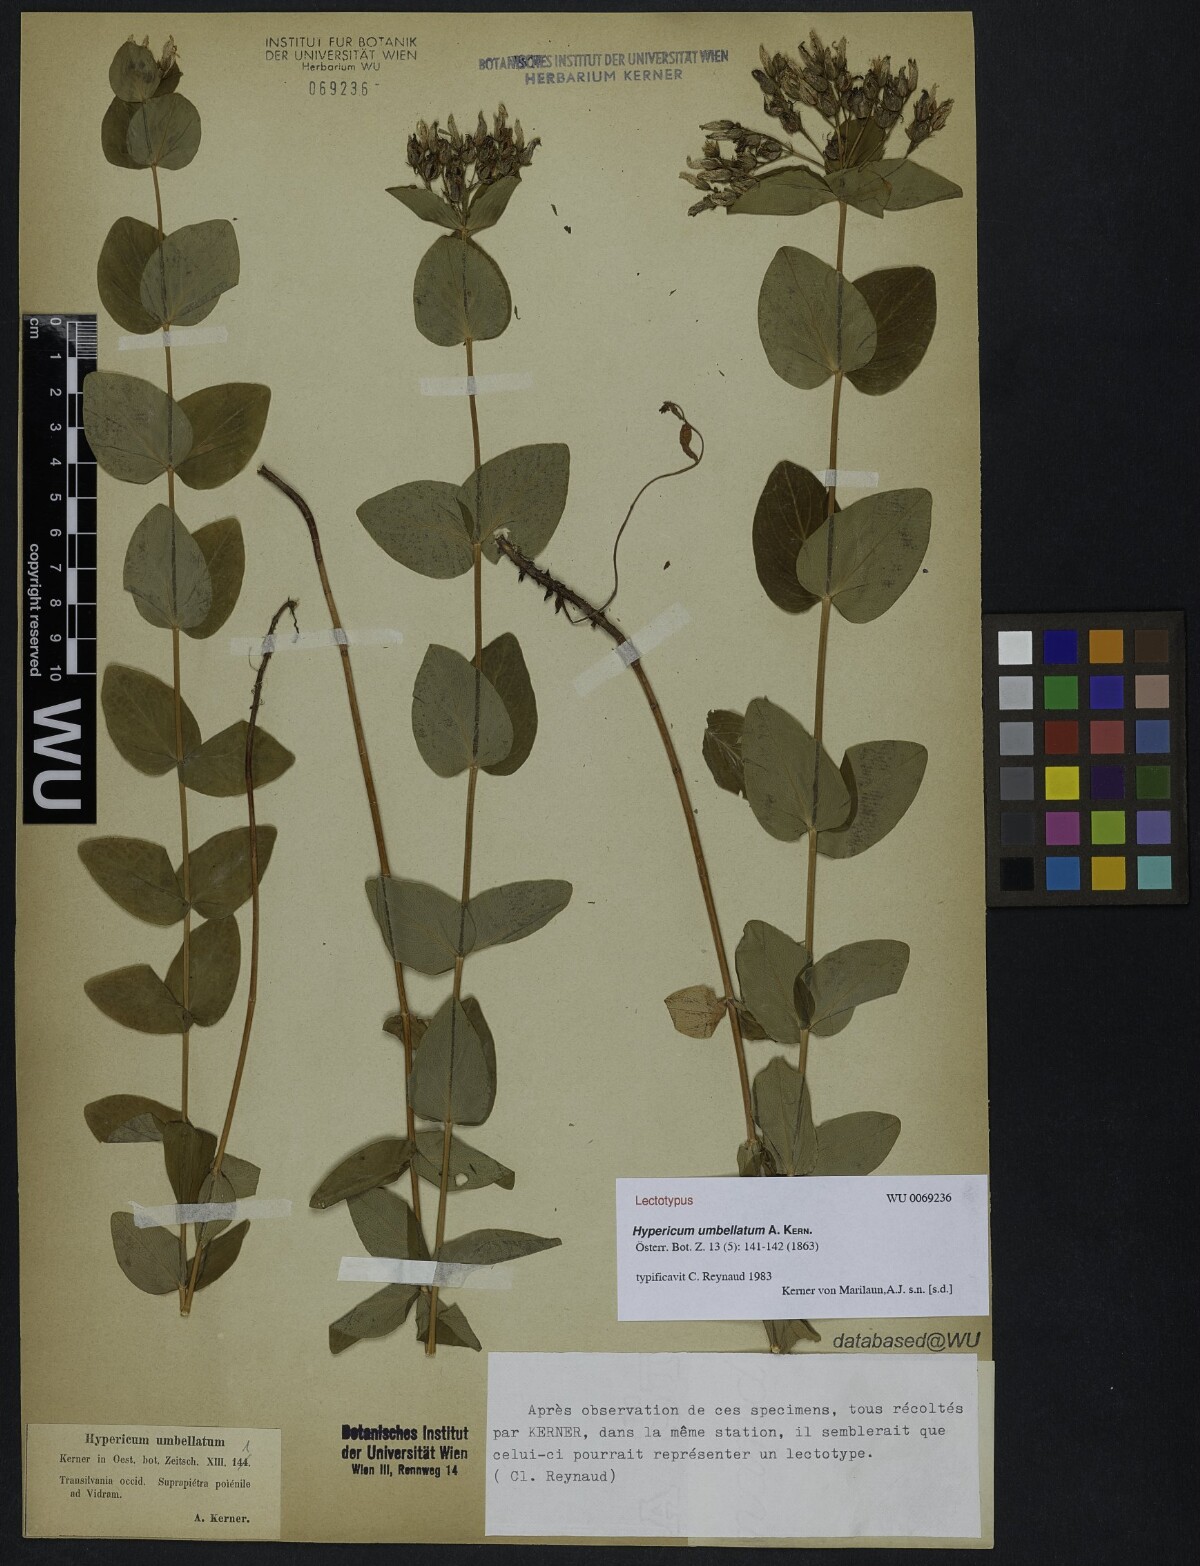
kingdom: Plantae
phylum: Tracheophyta
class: Magnoliopsida
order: Malpighiales
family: Hypericaceae
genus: Hypericum
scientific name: Hypericum umbellatum
